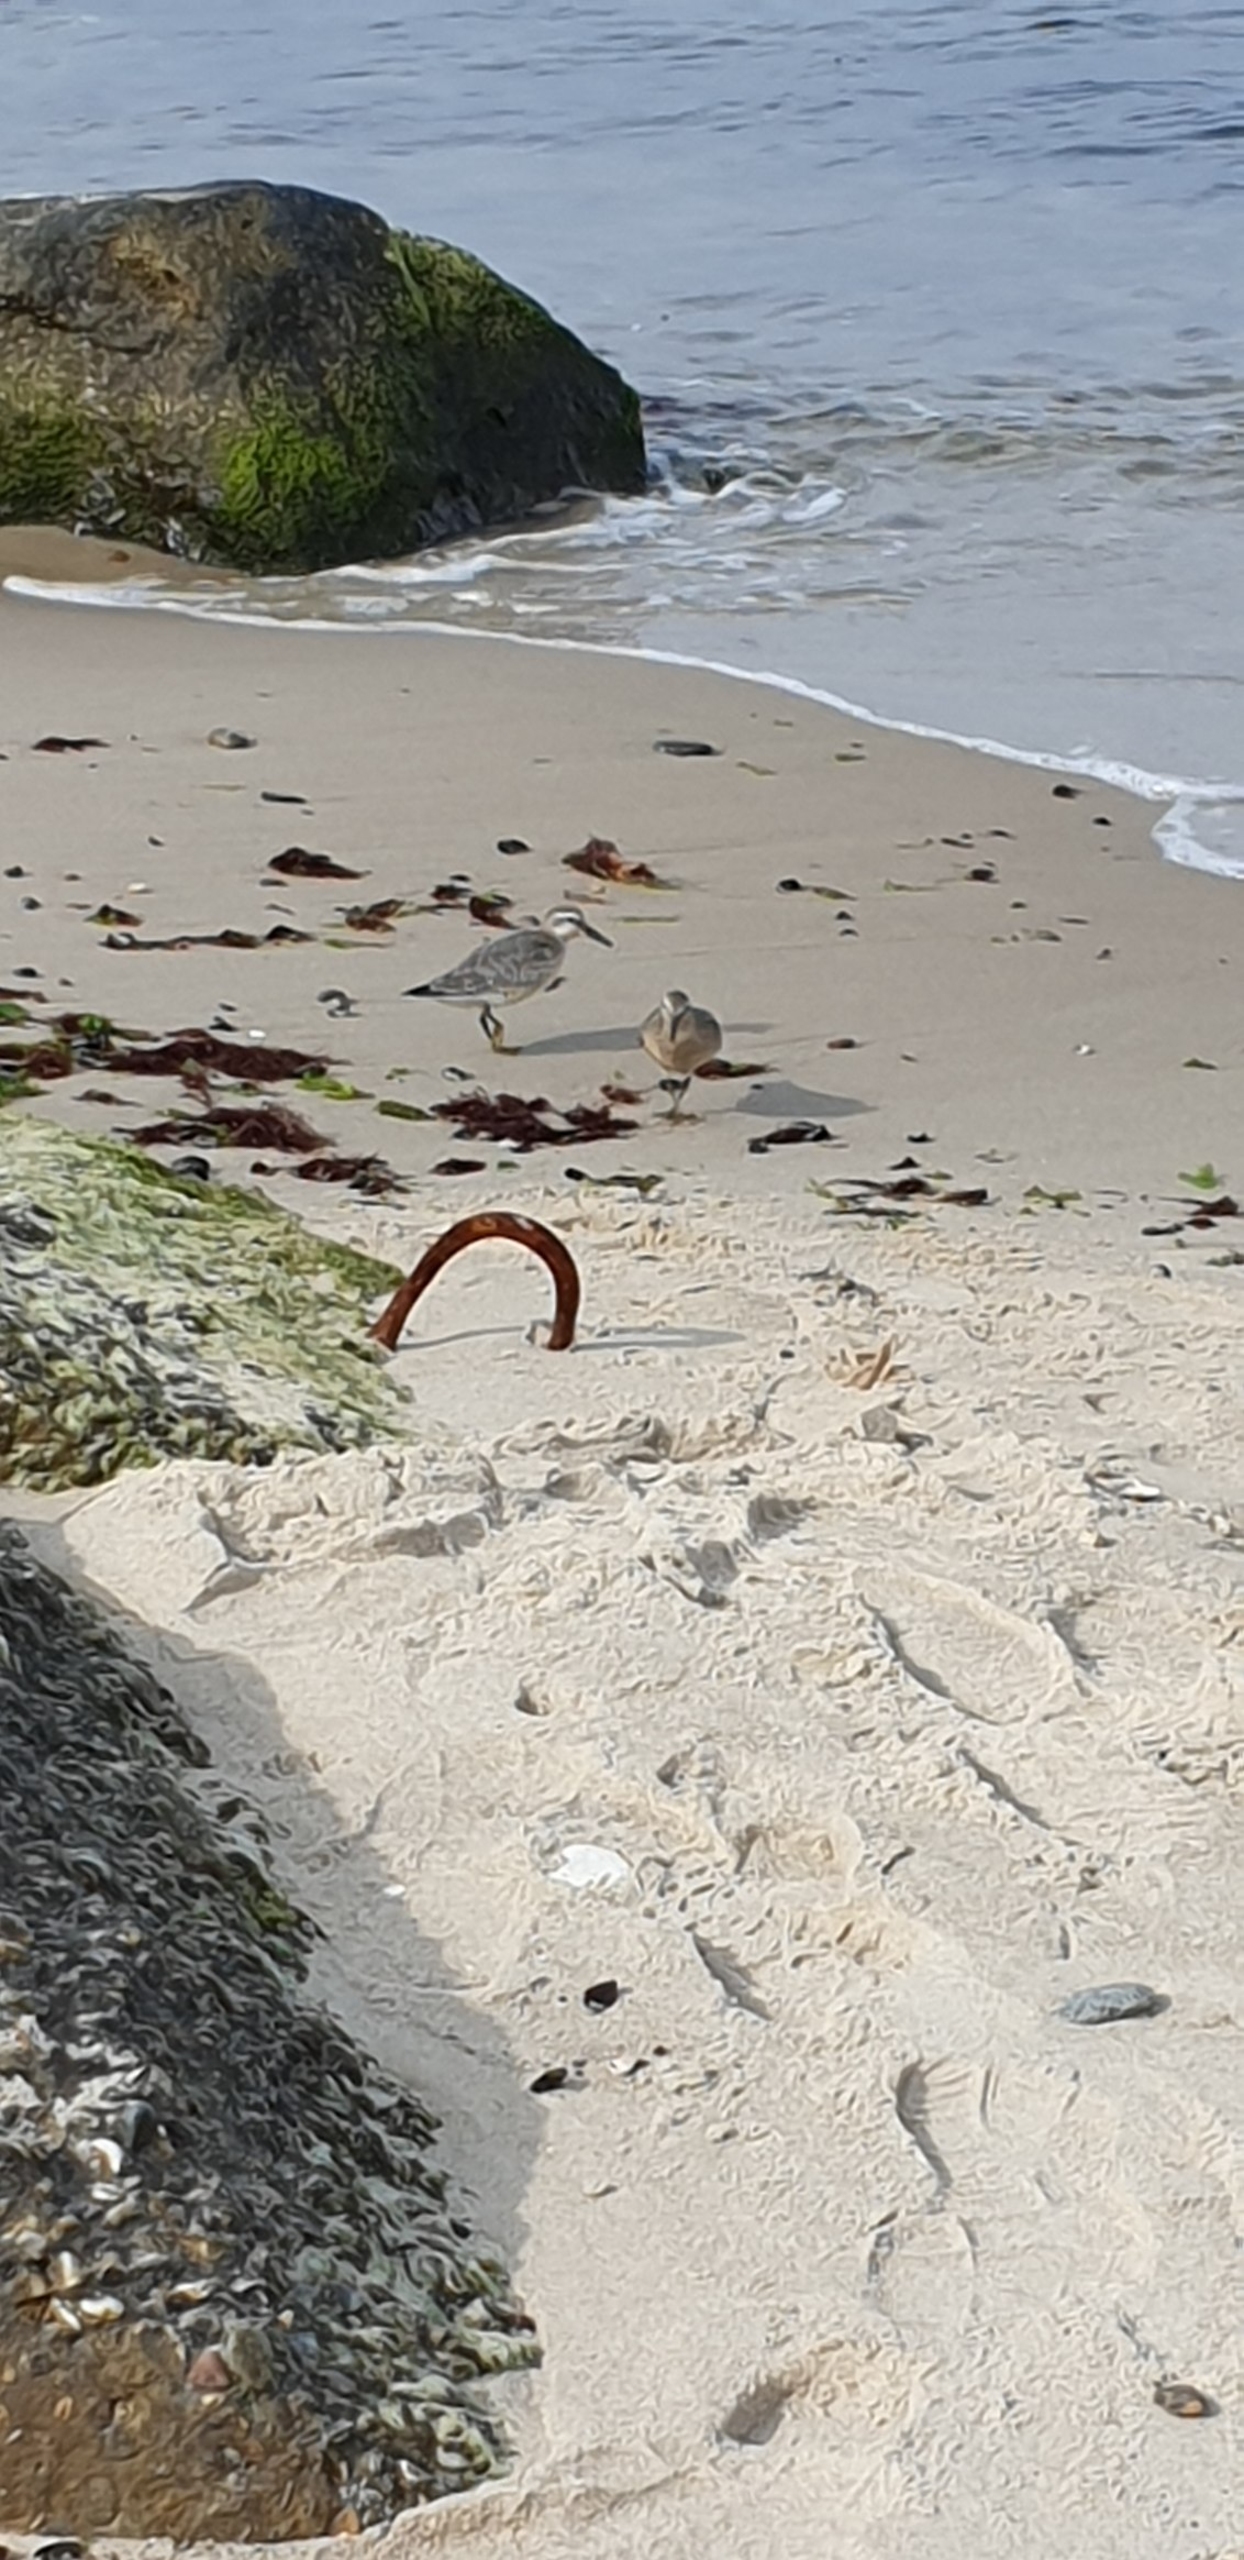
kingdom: Animalia
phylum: Chordata
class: Aves
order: Charadriiformes
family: Scolopacidae
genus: Calidris
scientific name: Calidris canutus
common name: Islandsk ryle
